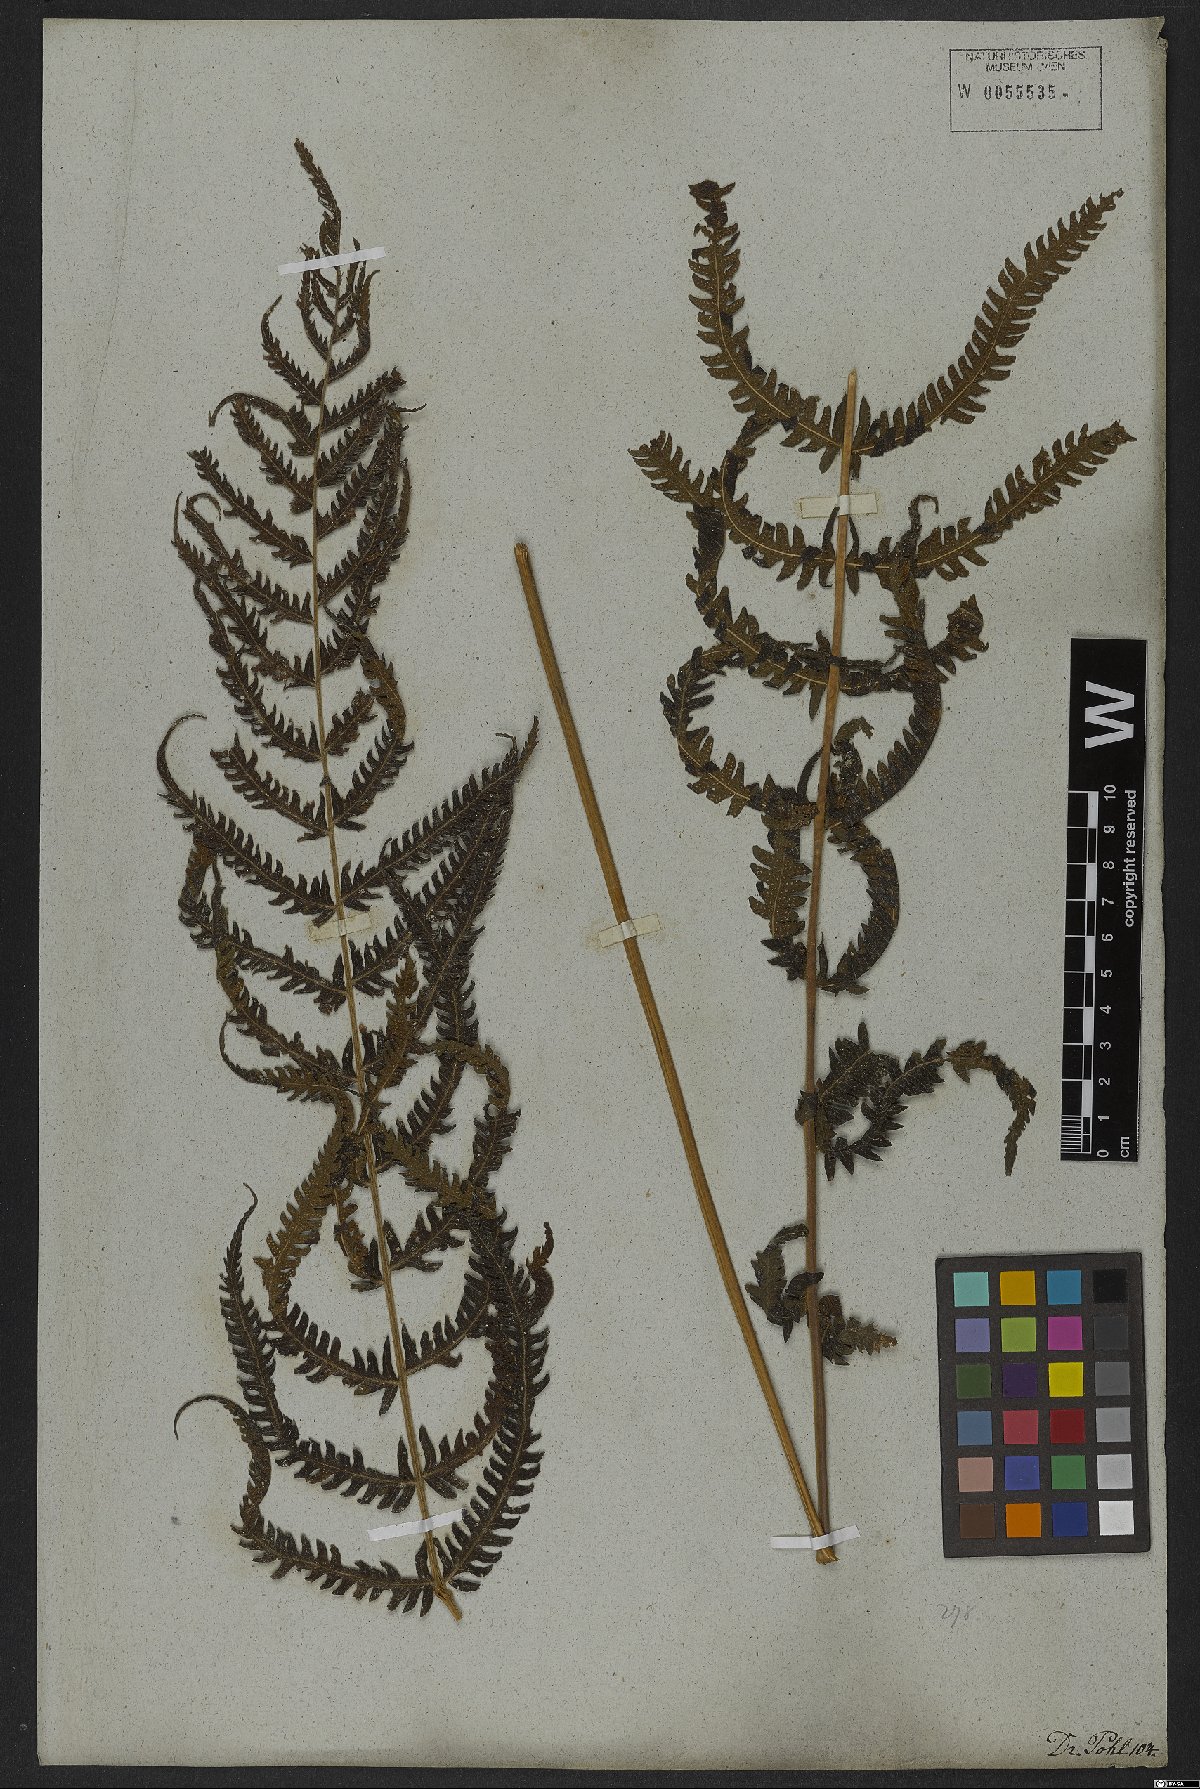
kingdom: Plantae
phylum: Tracheophyta
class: Polypodiopsida
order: Polypodiales
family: Thelypteridaceae
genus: Christella
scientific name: Christella parasitica
